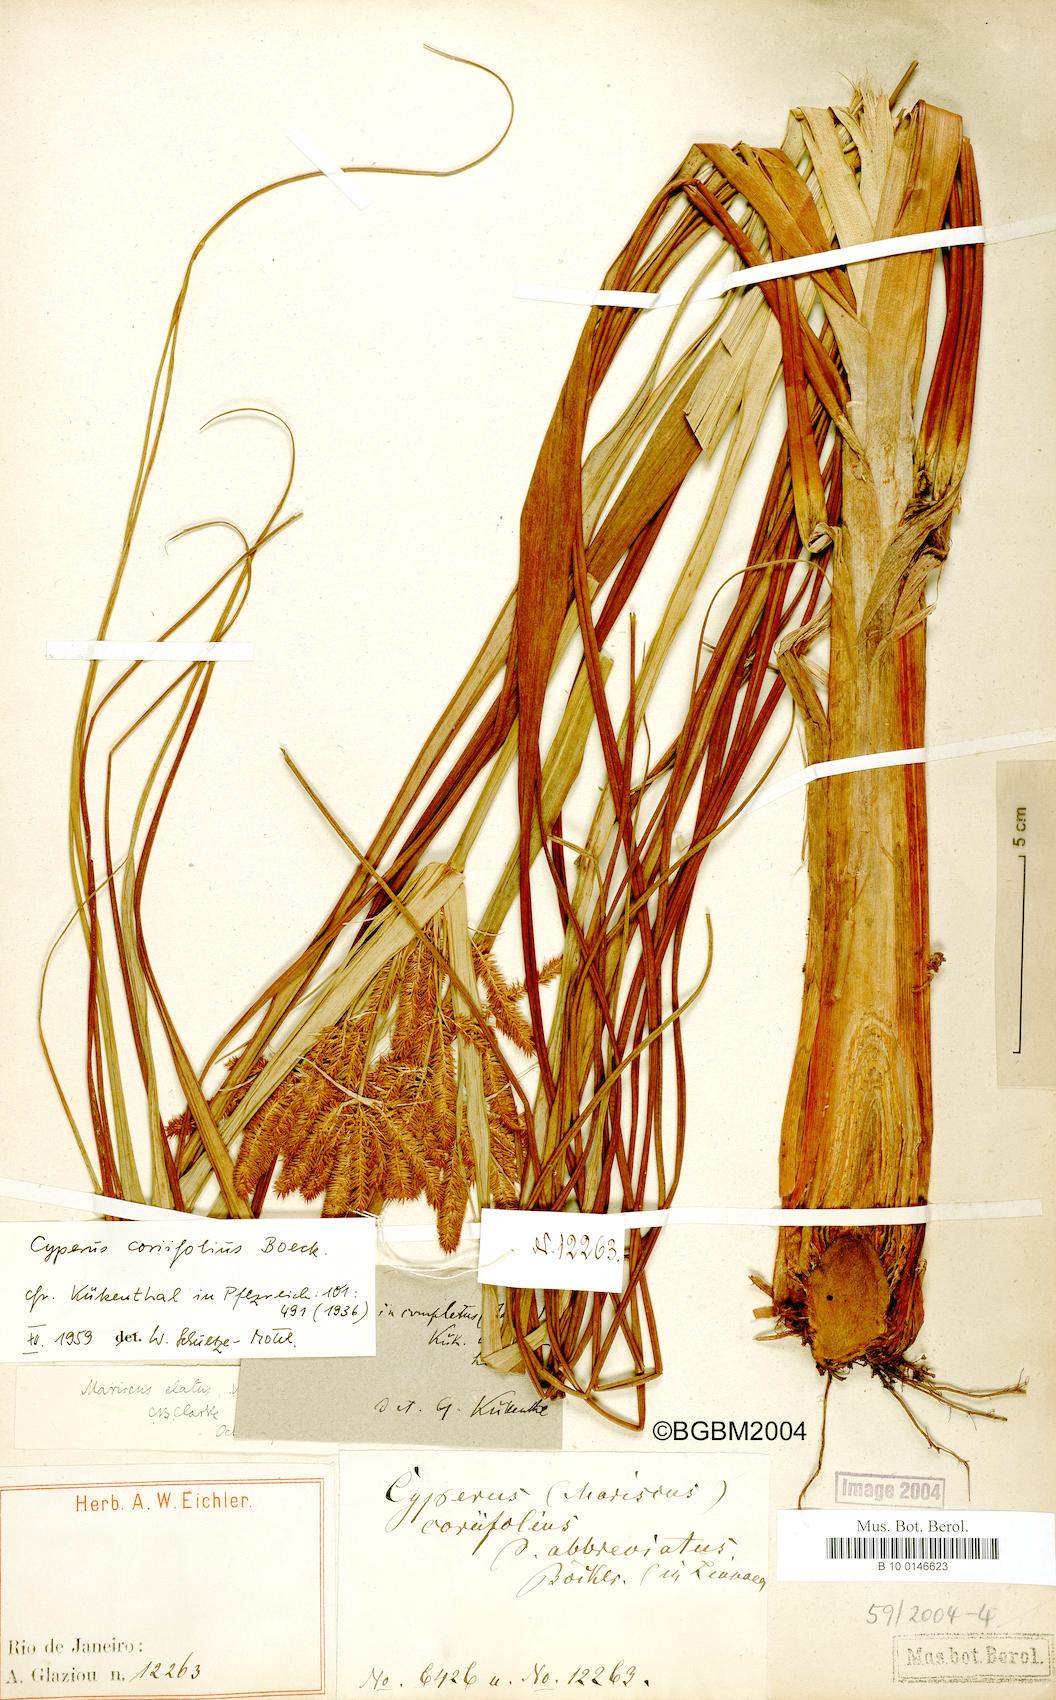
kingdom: Plantae
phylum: Tracheophyta
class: Liliopsida
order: Poales
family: Cyperaceae
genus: Cyperus
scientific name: Cyperus coriifolius
